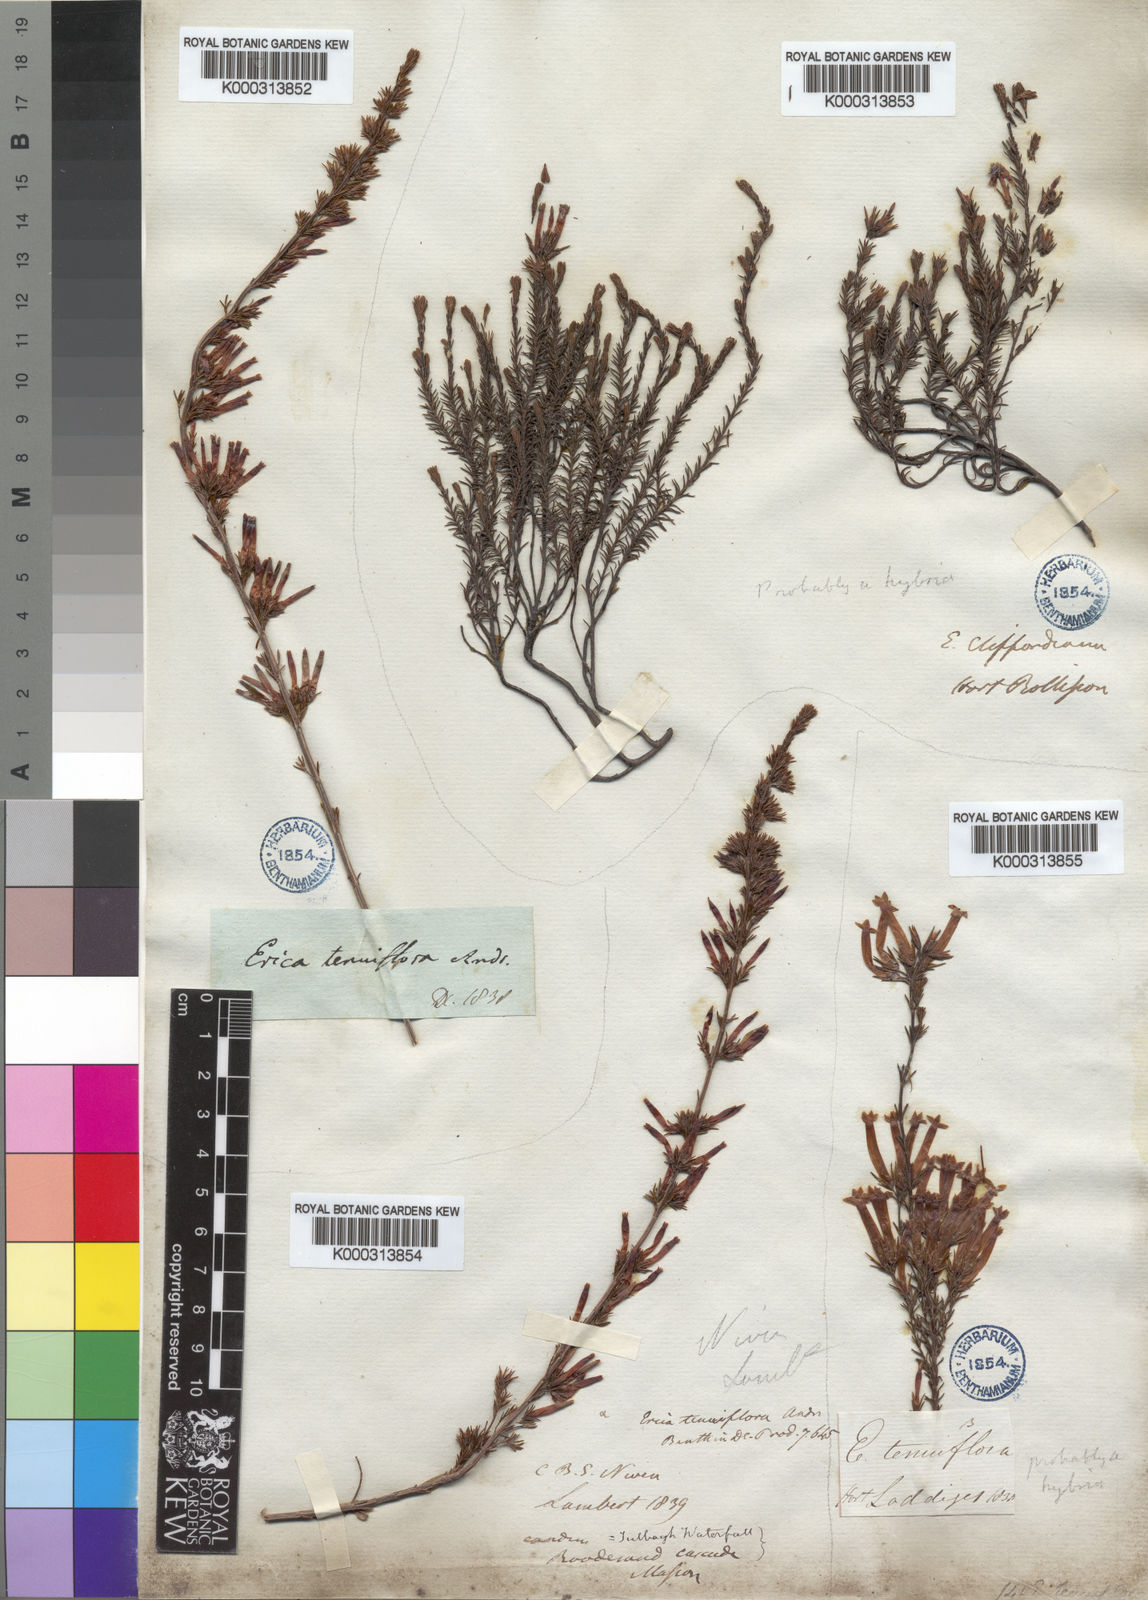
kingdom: Plantae
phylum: Tracheophyta
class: Magnoliopsida
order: Ericales
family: Ericaceae
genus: Erica
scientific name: Erica cylindrica
